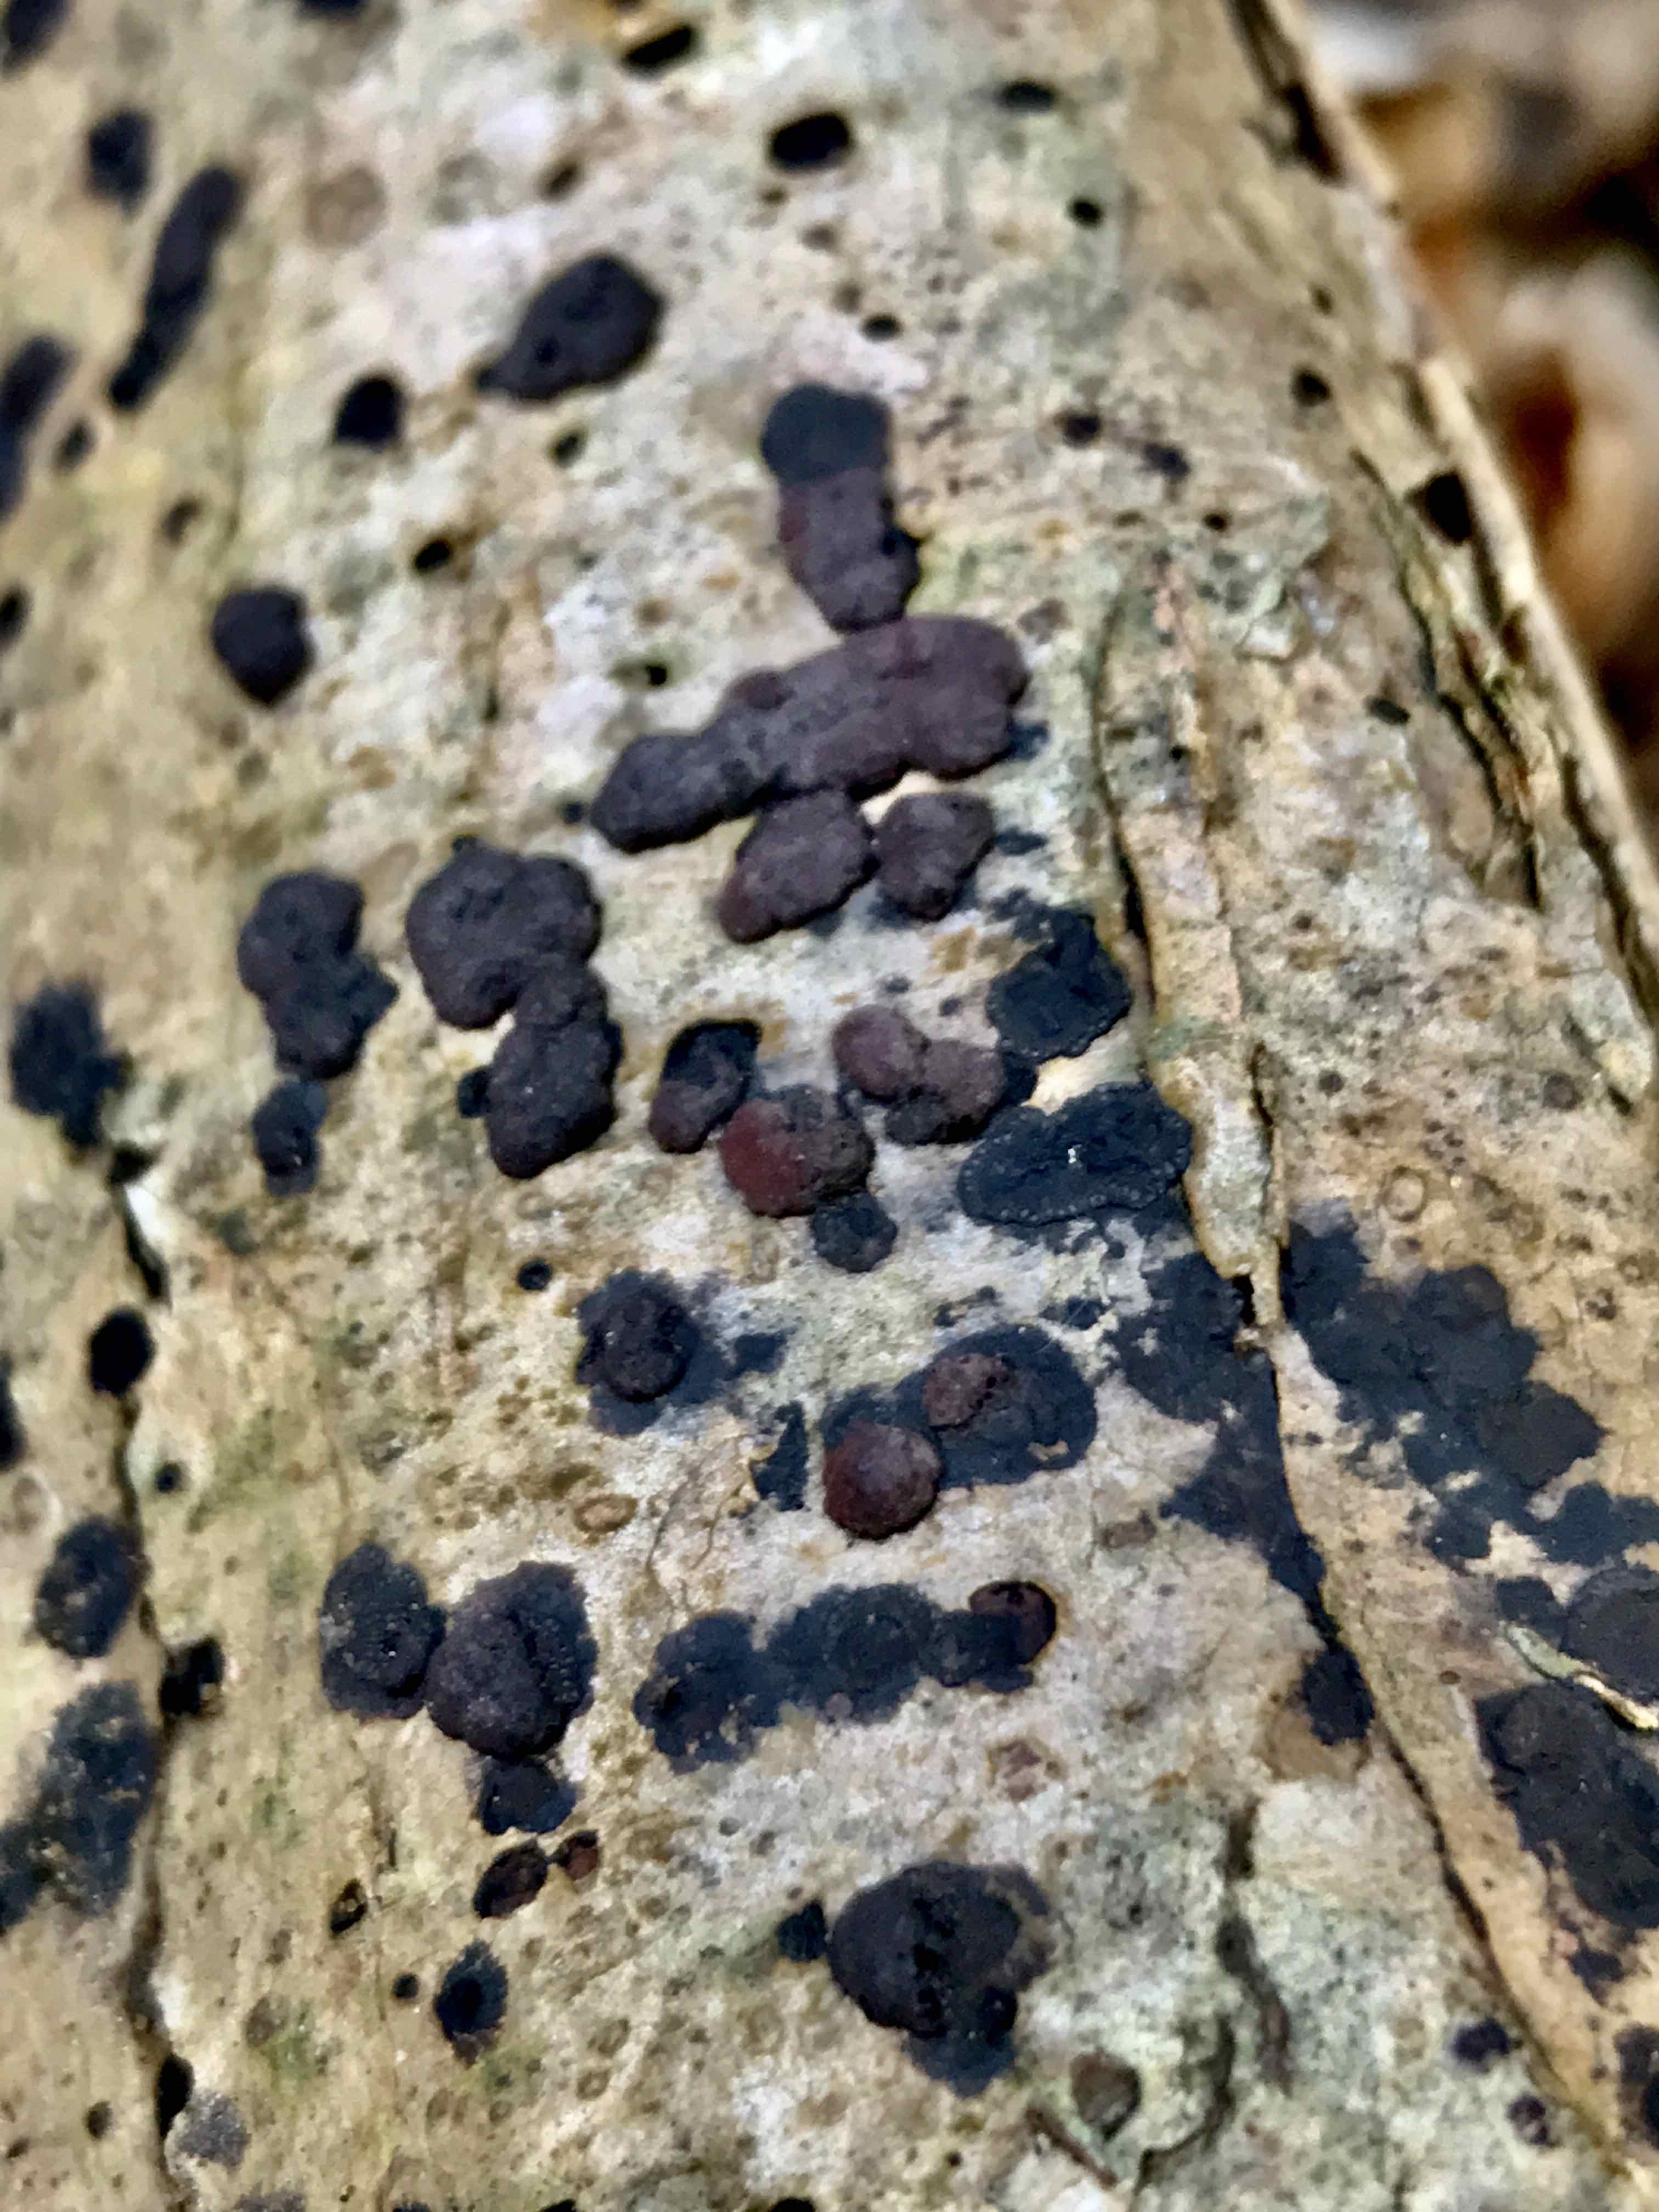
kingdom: Fungi
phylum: Ascomycota
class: Sordariomycetes
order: Xylariales
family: Hypoxylaceae
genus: Hypoxylon
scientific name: Hypoxylon fuscum
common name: kegleformet kulbær
